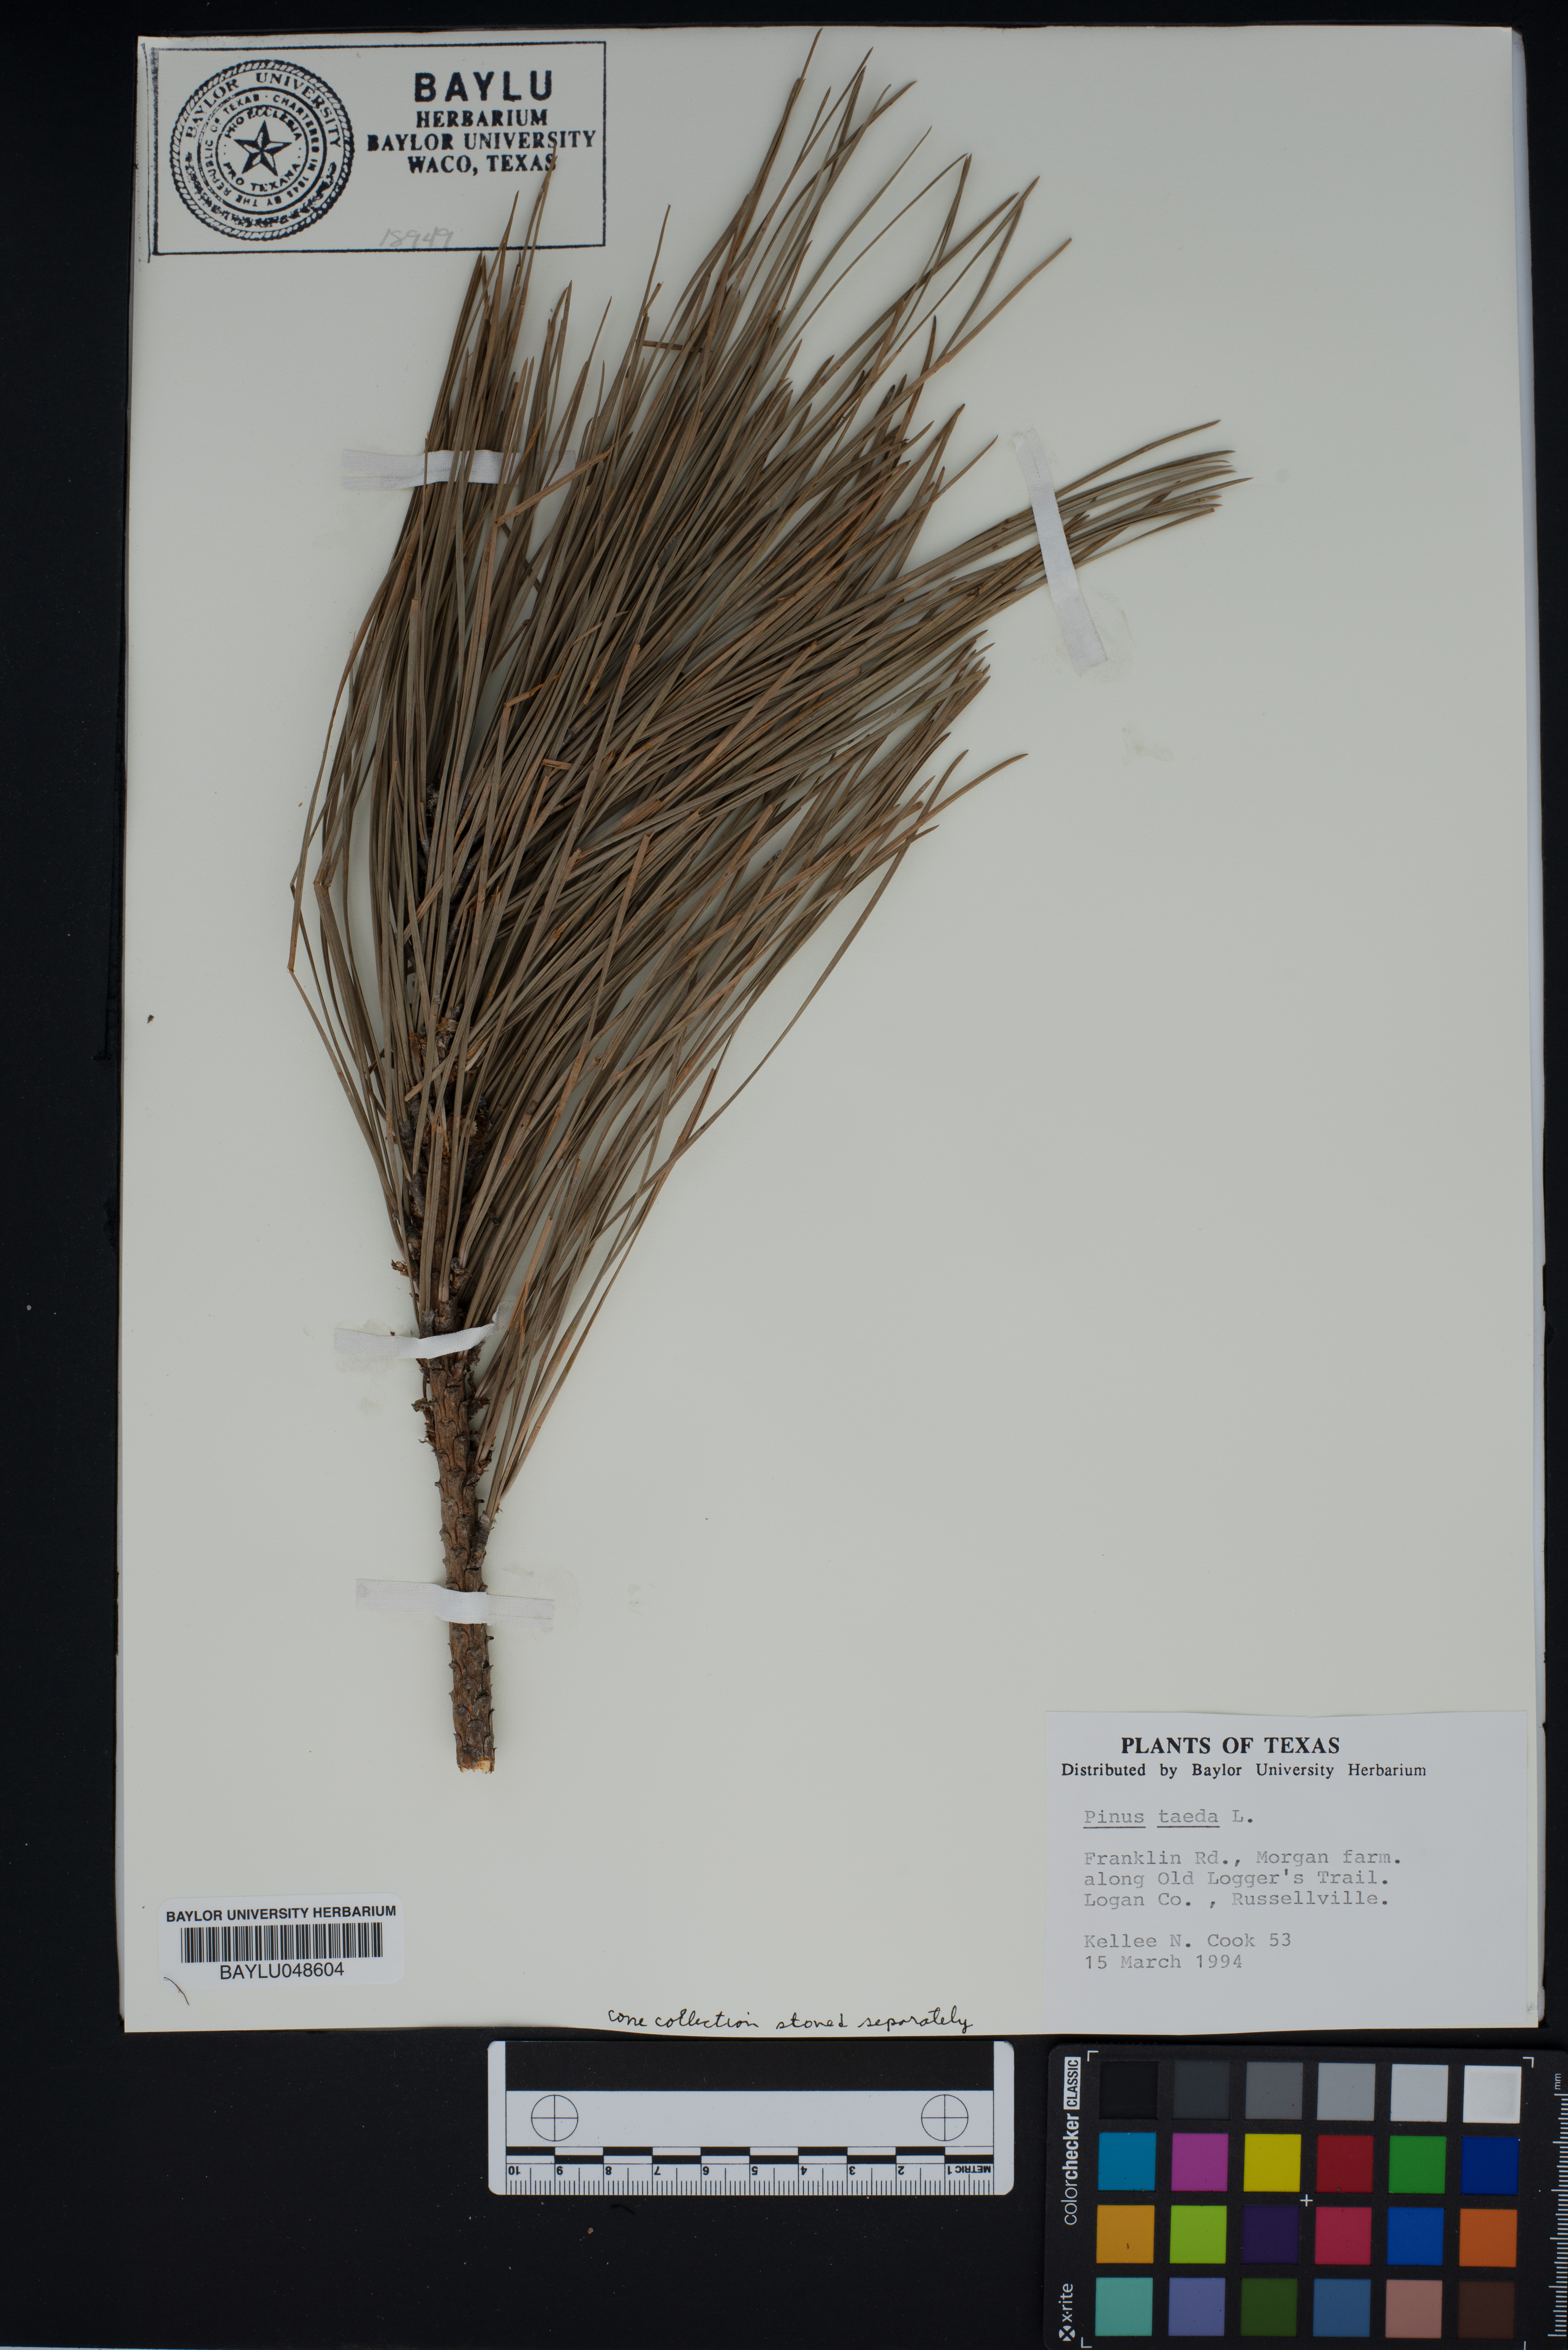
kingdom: Plantae
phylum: Tracheophyta
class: Pinopsida
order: Pinales
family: Pinaceae
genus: Pinus
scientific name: Pinus taeda
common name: Loblolly pine
